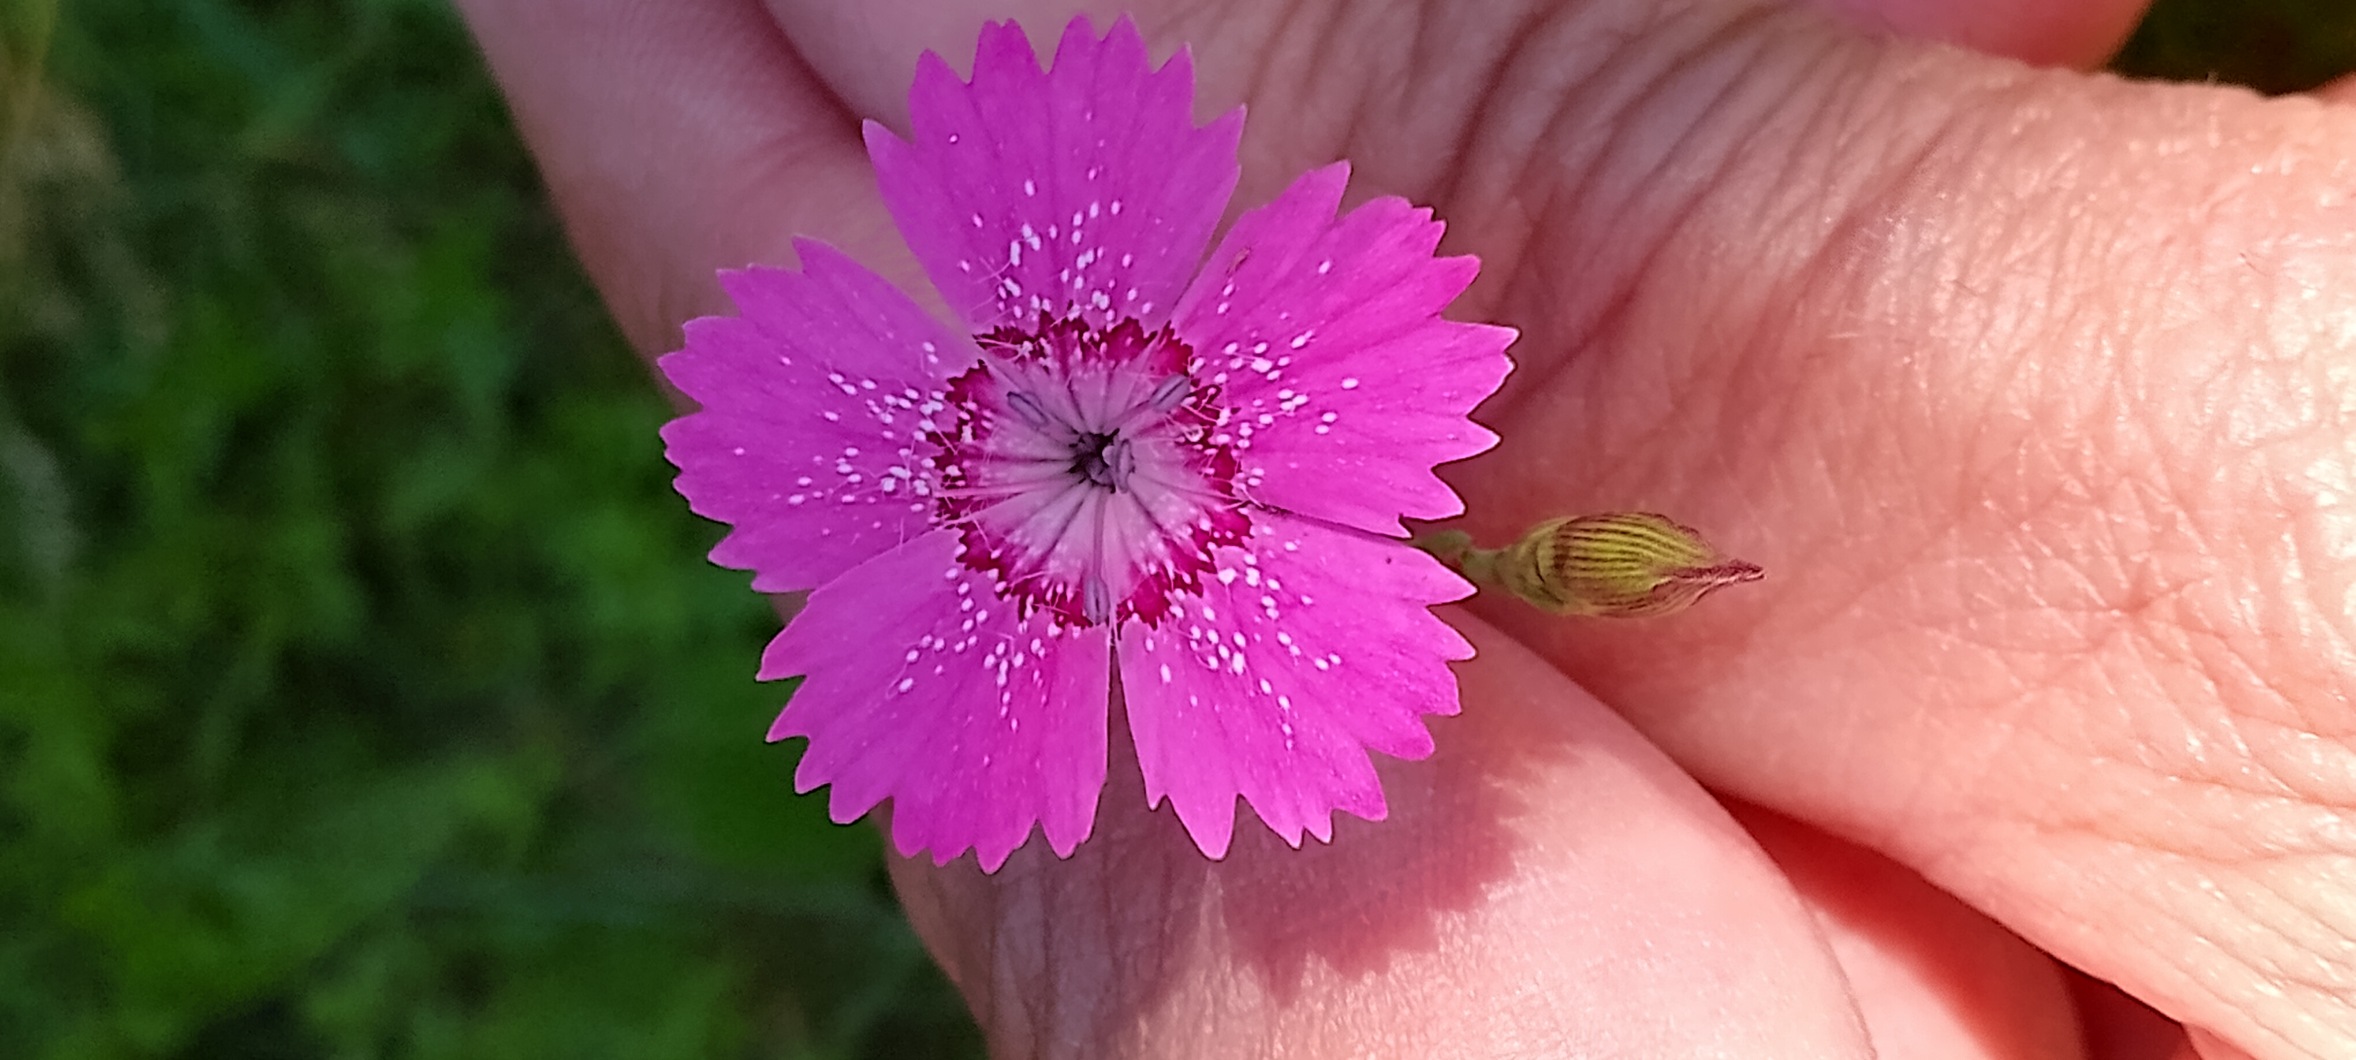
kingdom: Plantae
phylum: Tracheophyta
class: Magnoliopsida
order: Caryophyllales
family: Caryophyllaceae
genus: Dianthus
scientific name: Dianthus deltoides
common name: Bakke-nellike
